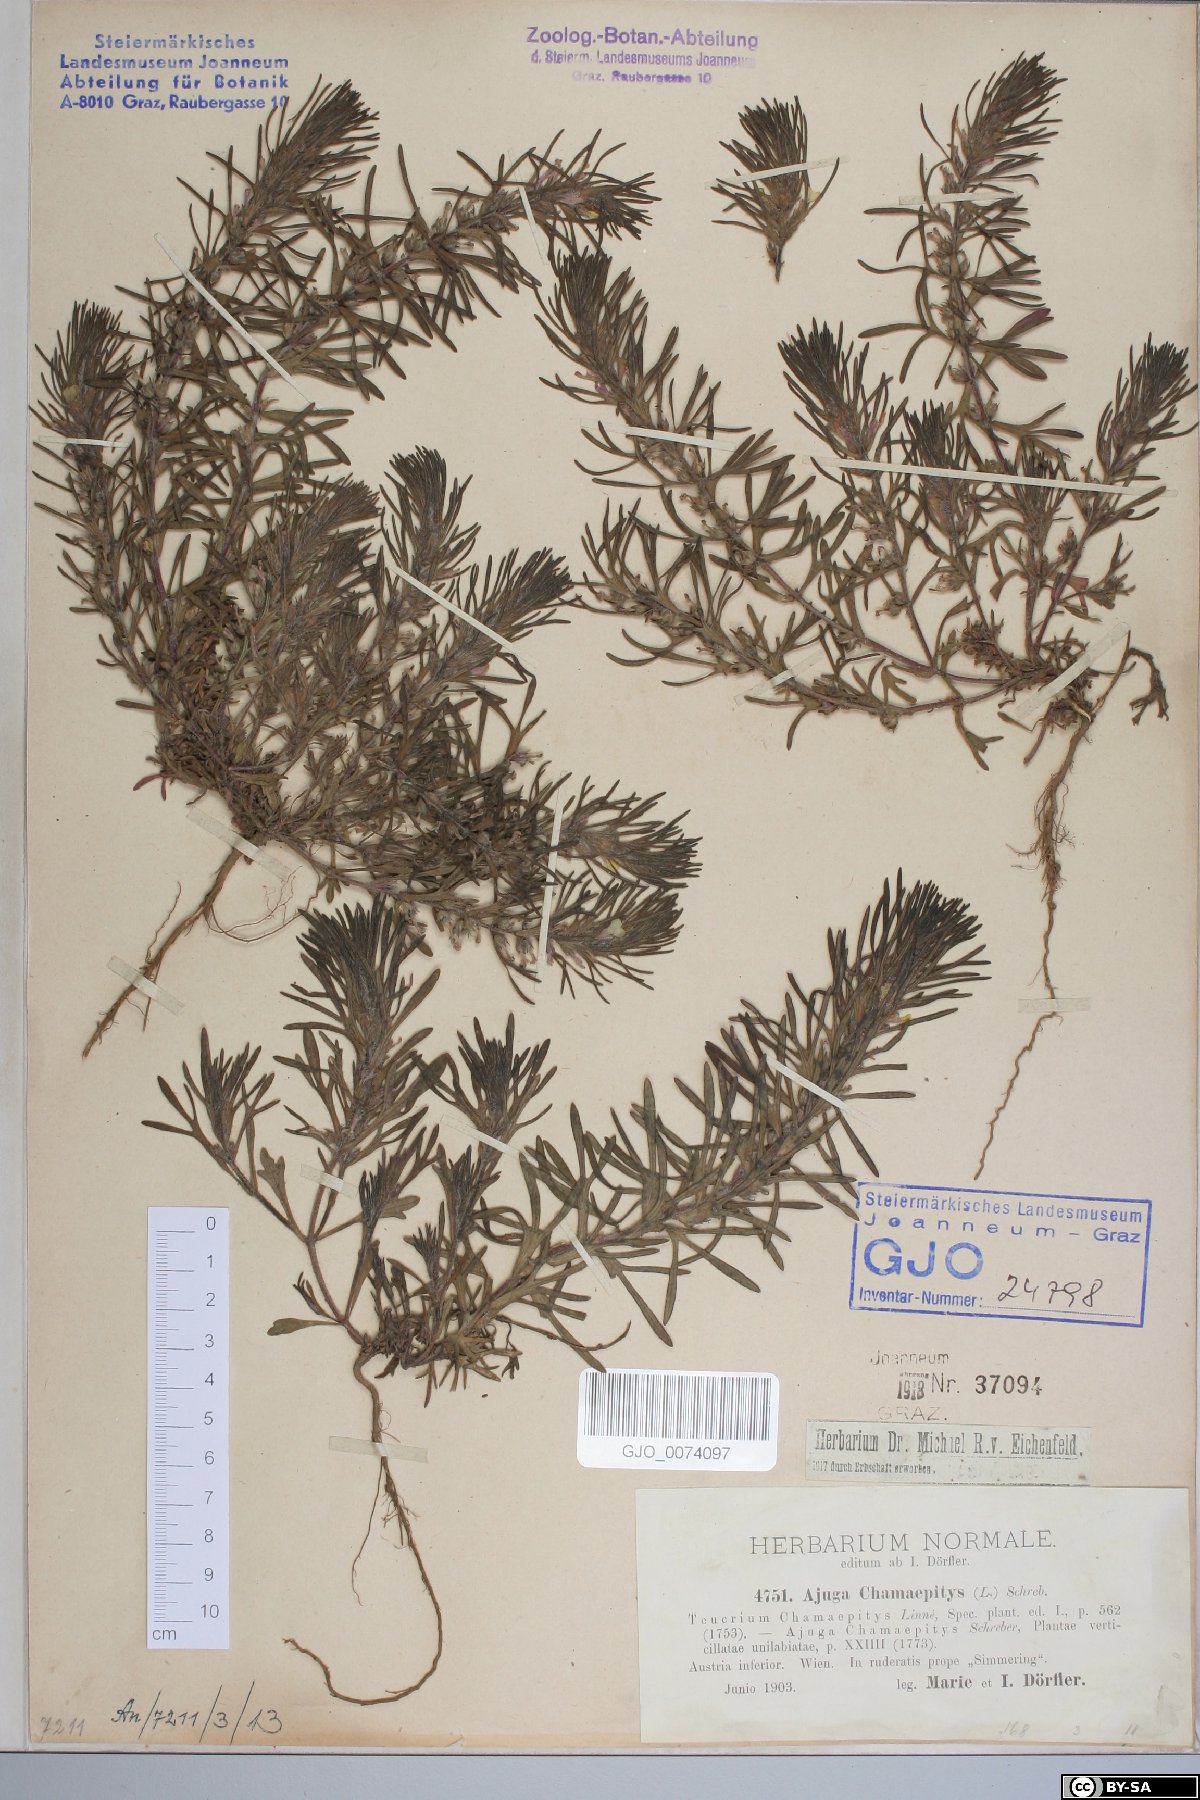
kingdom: Plantae
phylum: Tracheophyta
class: Magnoliopsida
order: Lamiales
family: Lamiaceae
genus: Ajuga
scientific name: Ajuga chamaepitys
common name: Ground-pine
